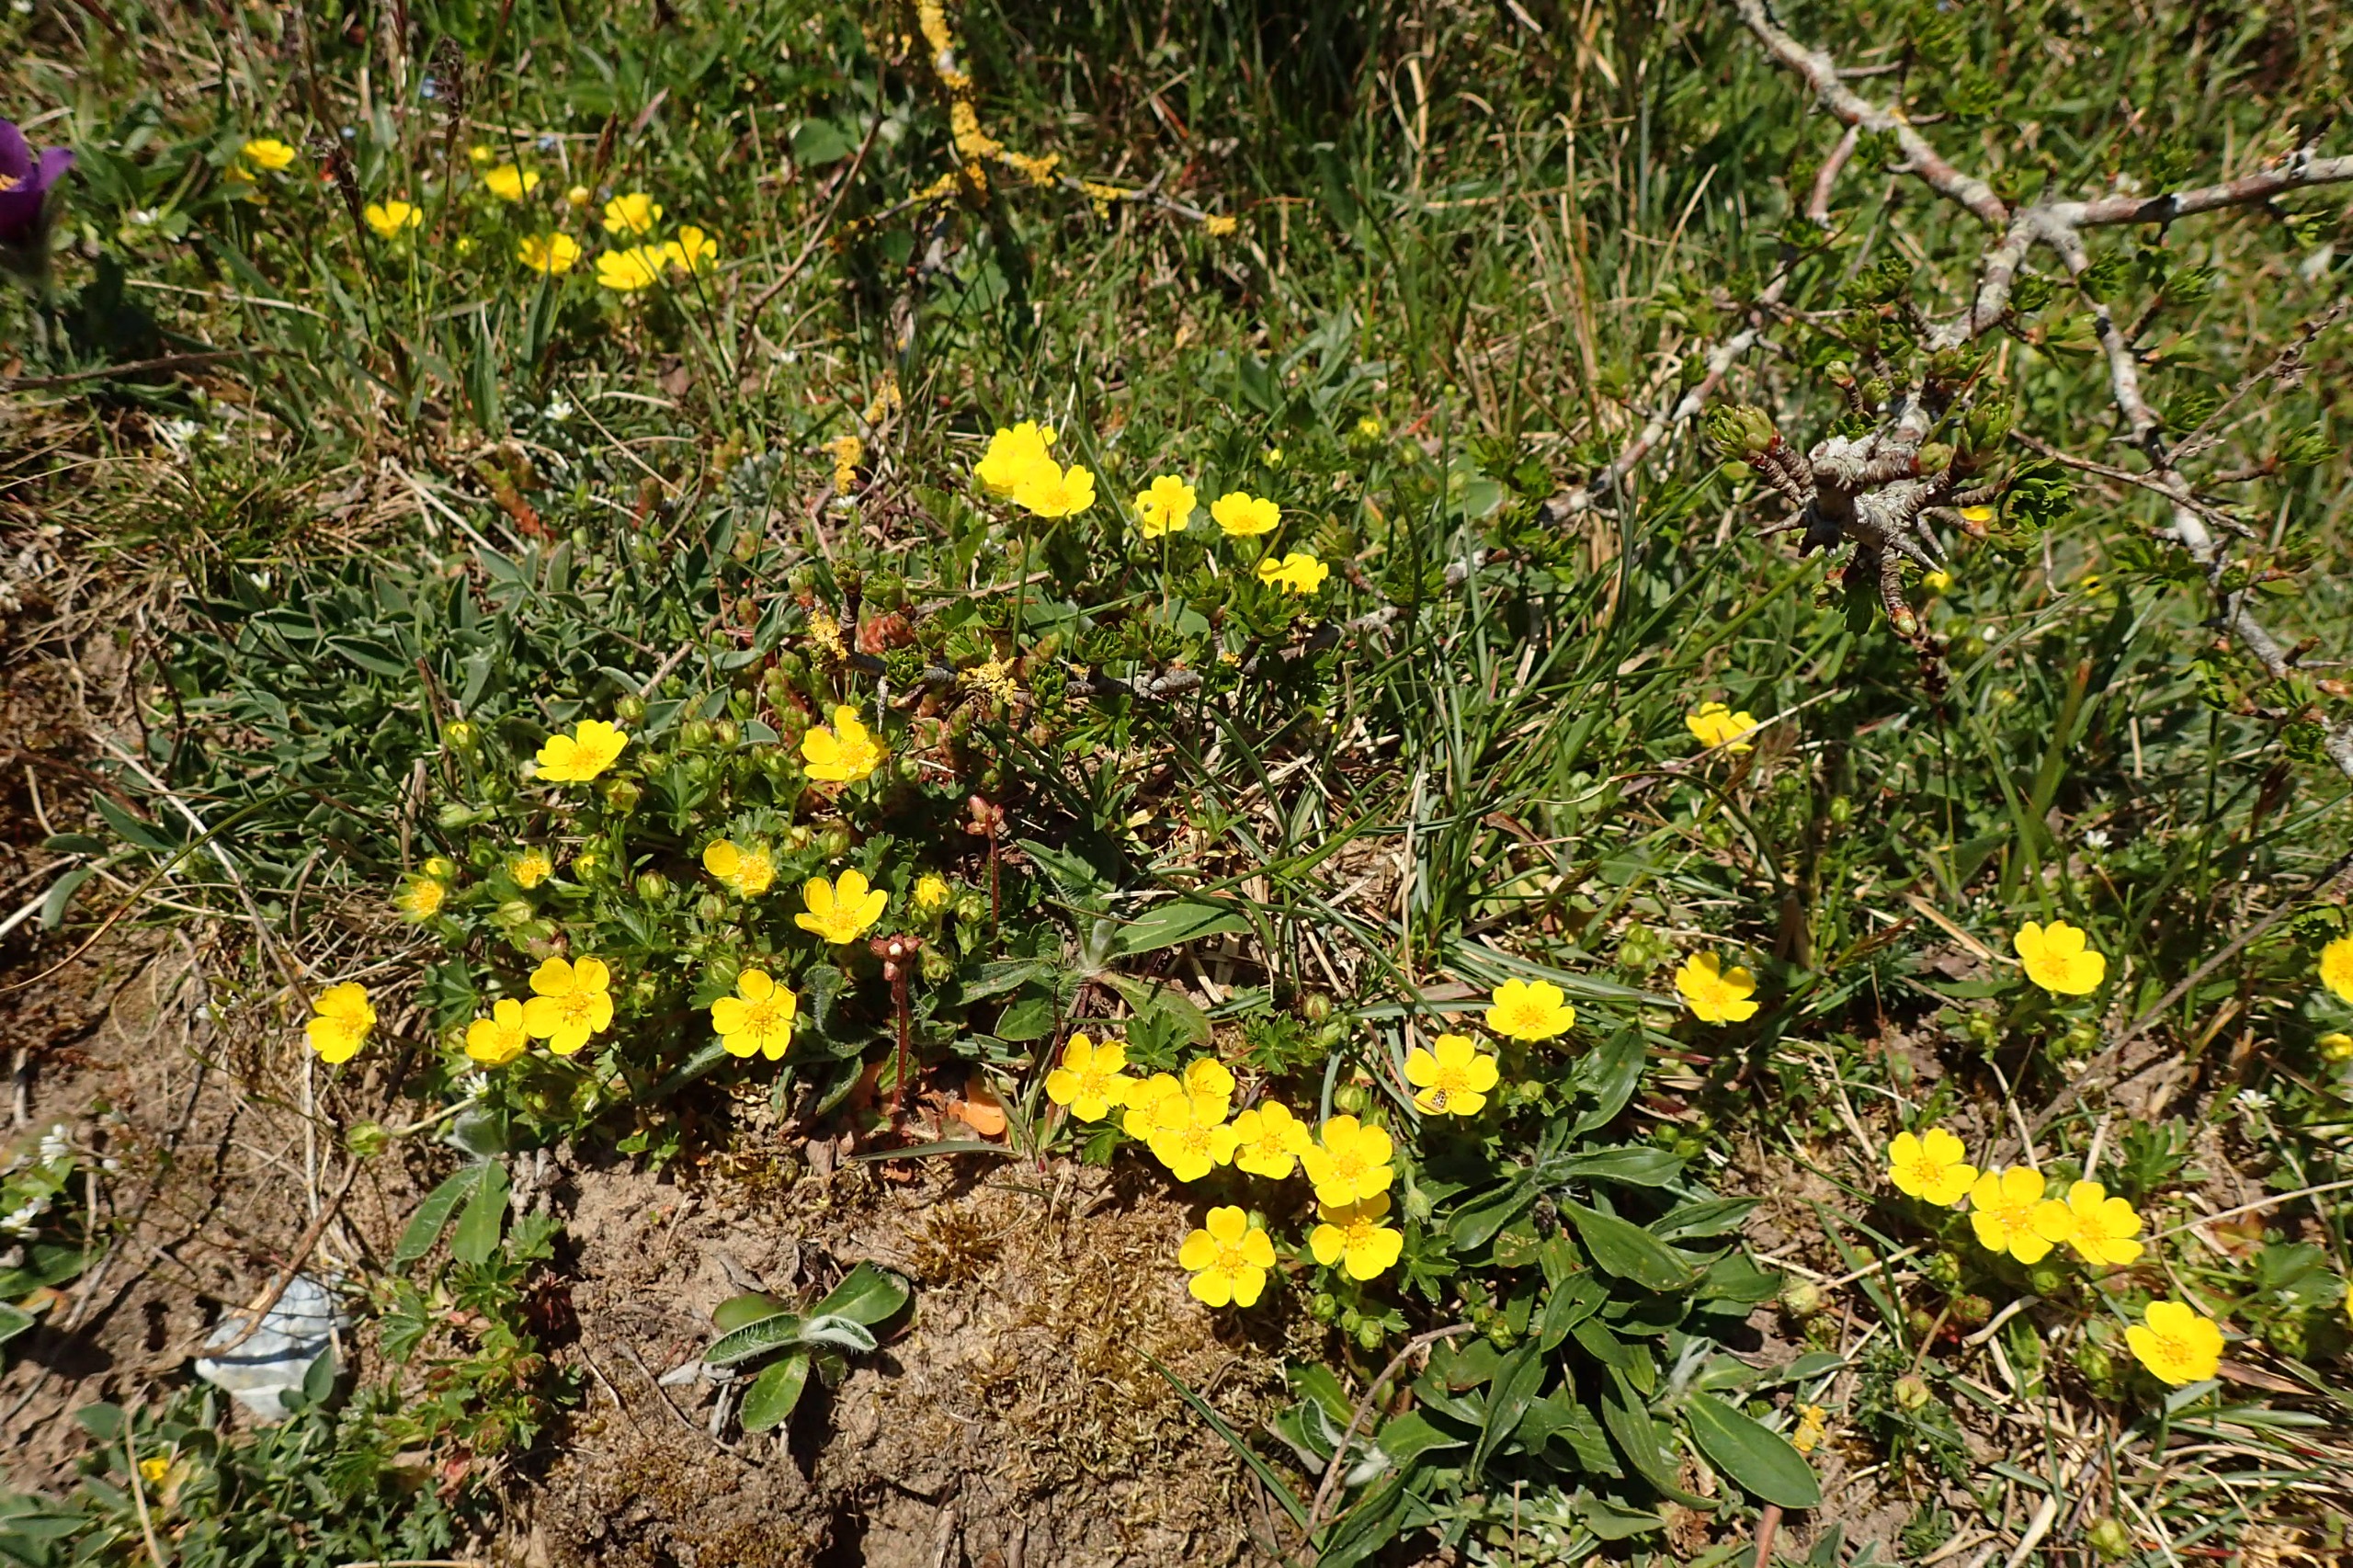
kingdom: Plantae
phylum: Tracheophyta
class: Magnoliopsida
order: Rosales
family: Rosaceae
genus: Potentilla
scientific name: Potentilla verna
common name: Vår-potentil
